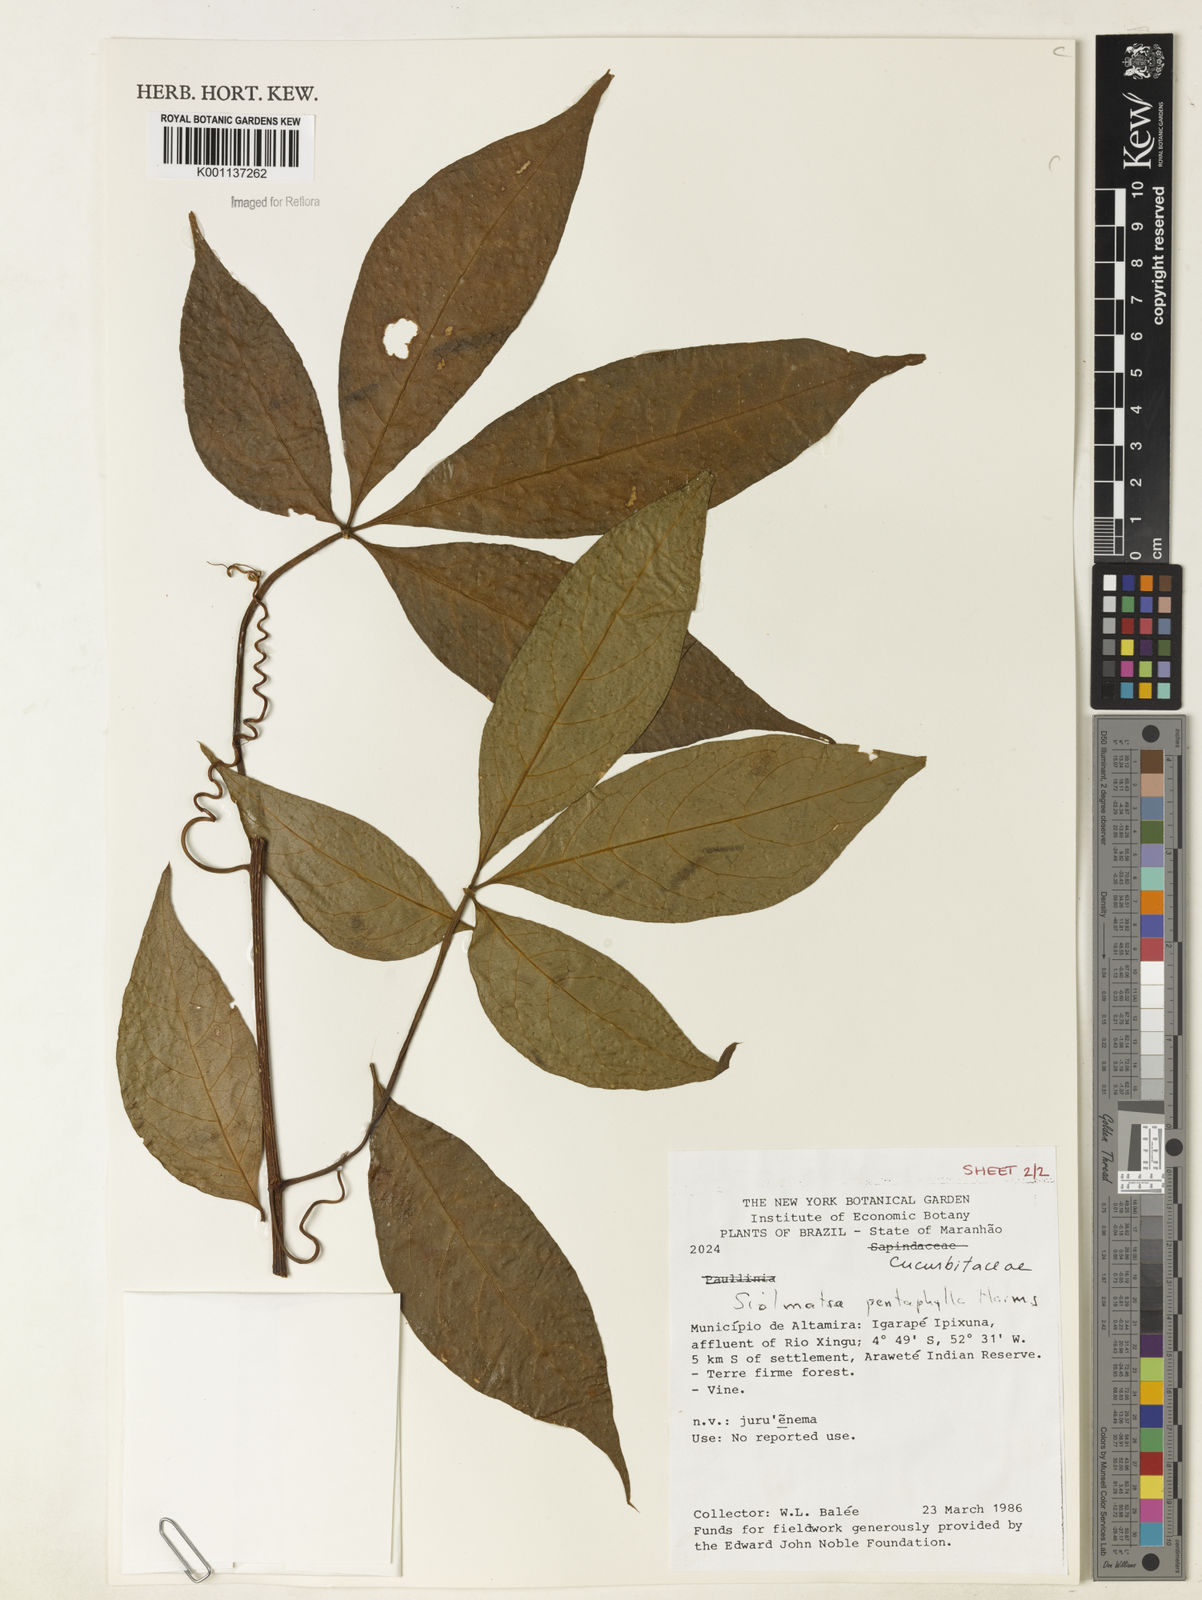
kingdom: Plantae
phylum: Tracheophyta
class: Magnoliopsida
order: Cucurbitales
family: Cucurbitaceae
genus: Siolmatra
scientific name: Siolmatra pentaphylla
